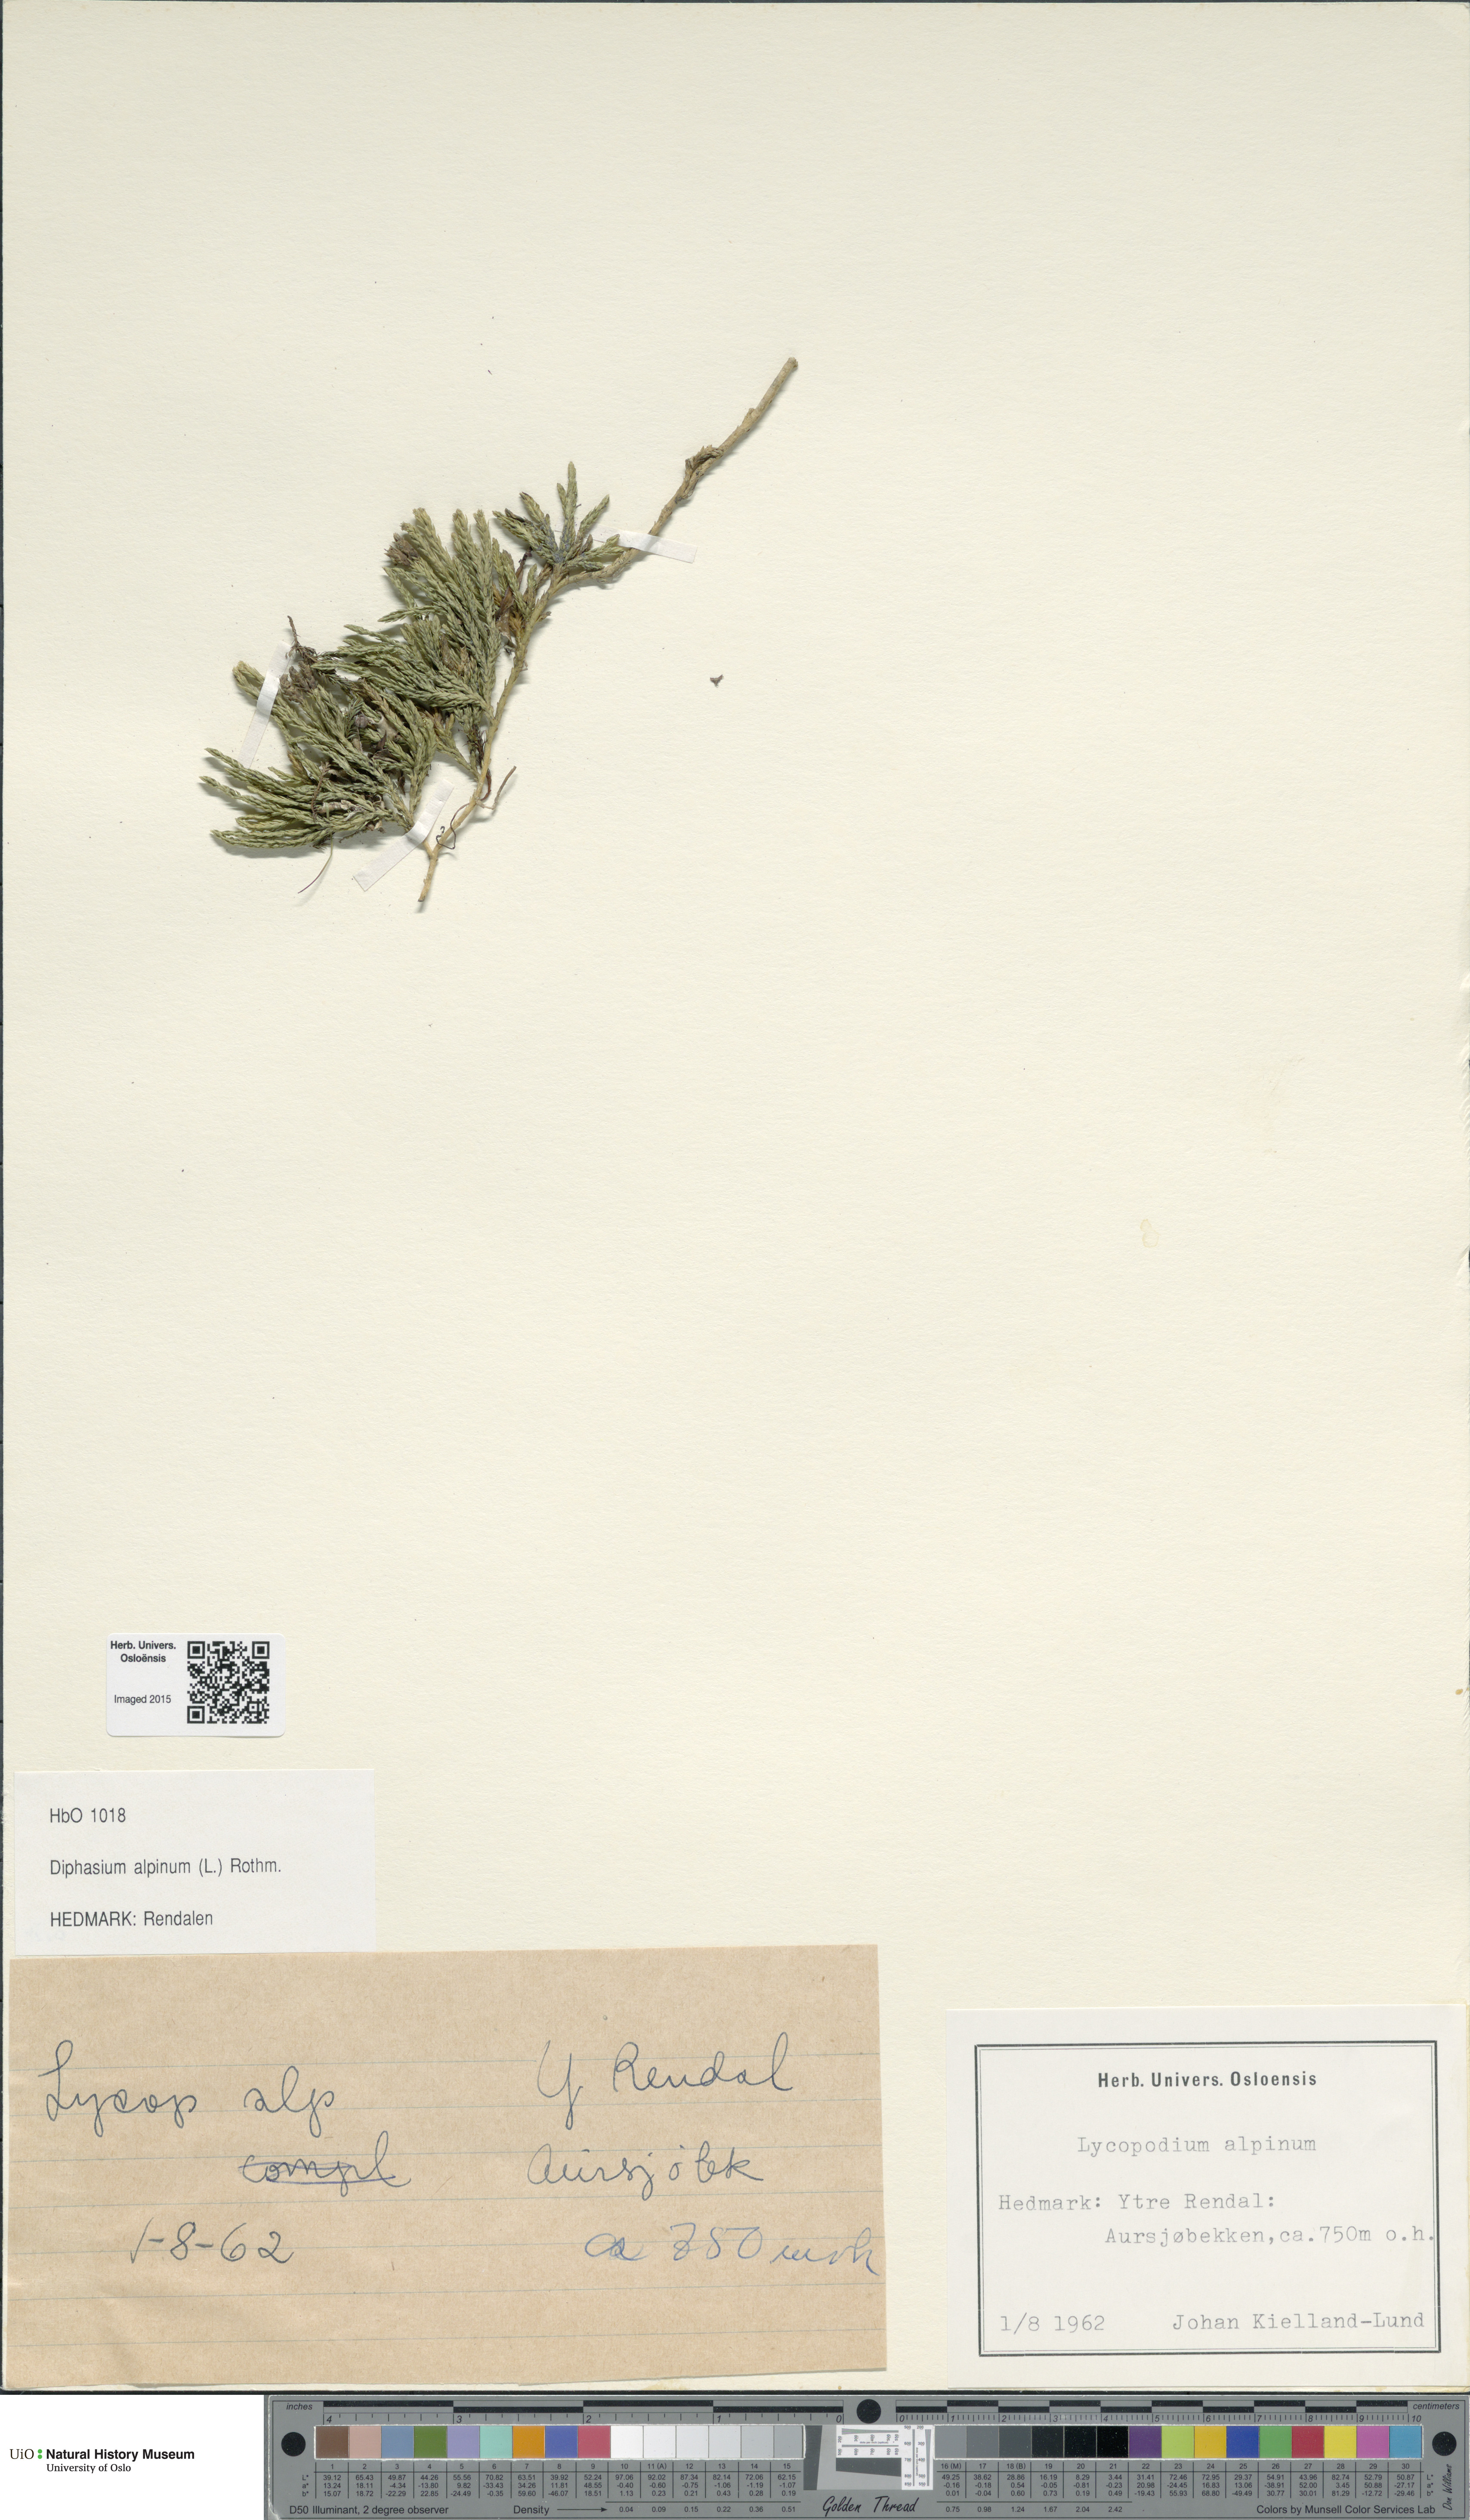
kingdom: Plantae
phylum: Tracheophyta
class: Lycopodiopsida
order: Lycopodiales
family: Lycopodiaceae
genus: Diphasiastrum
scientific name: Diphasiastrum alpinum
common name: Alpine clubmoss
